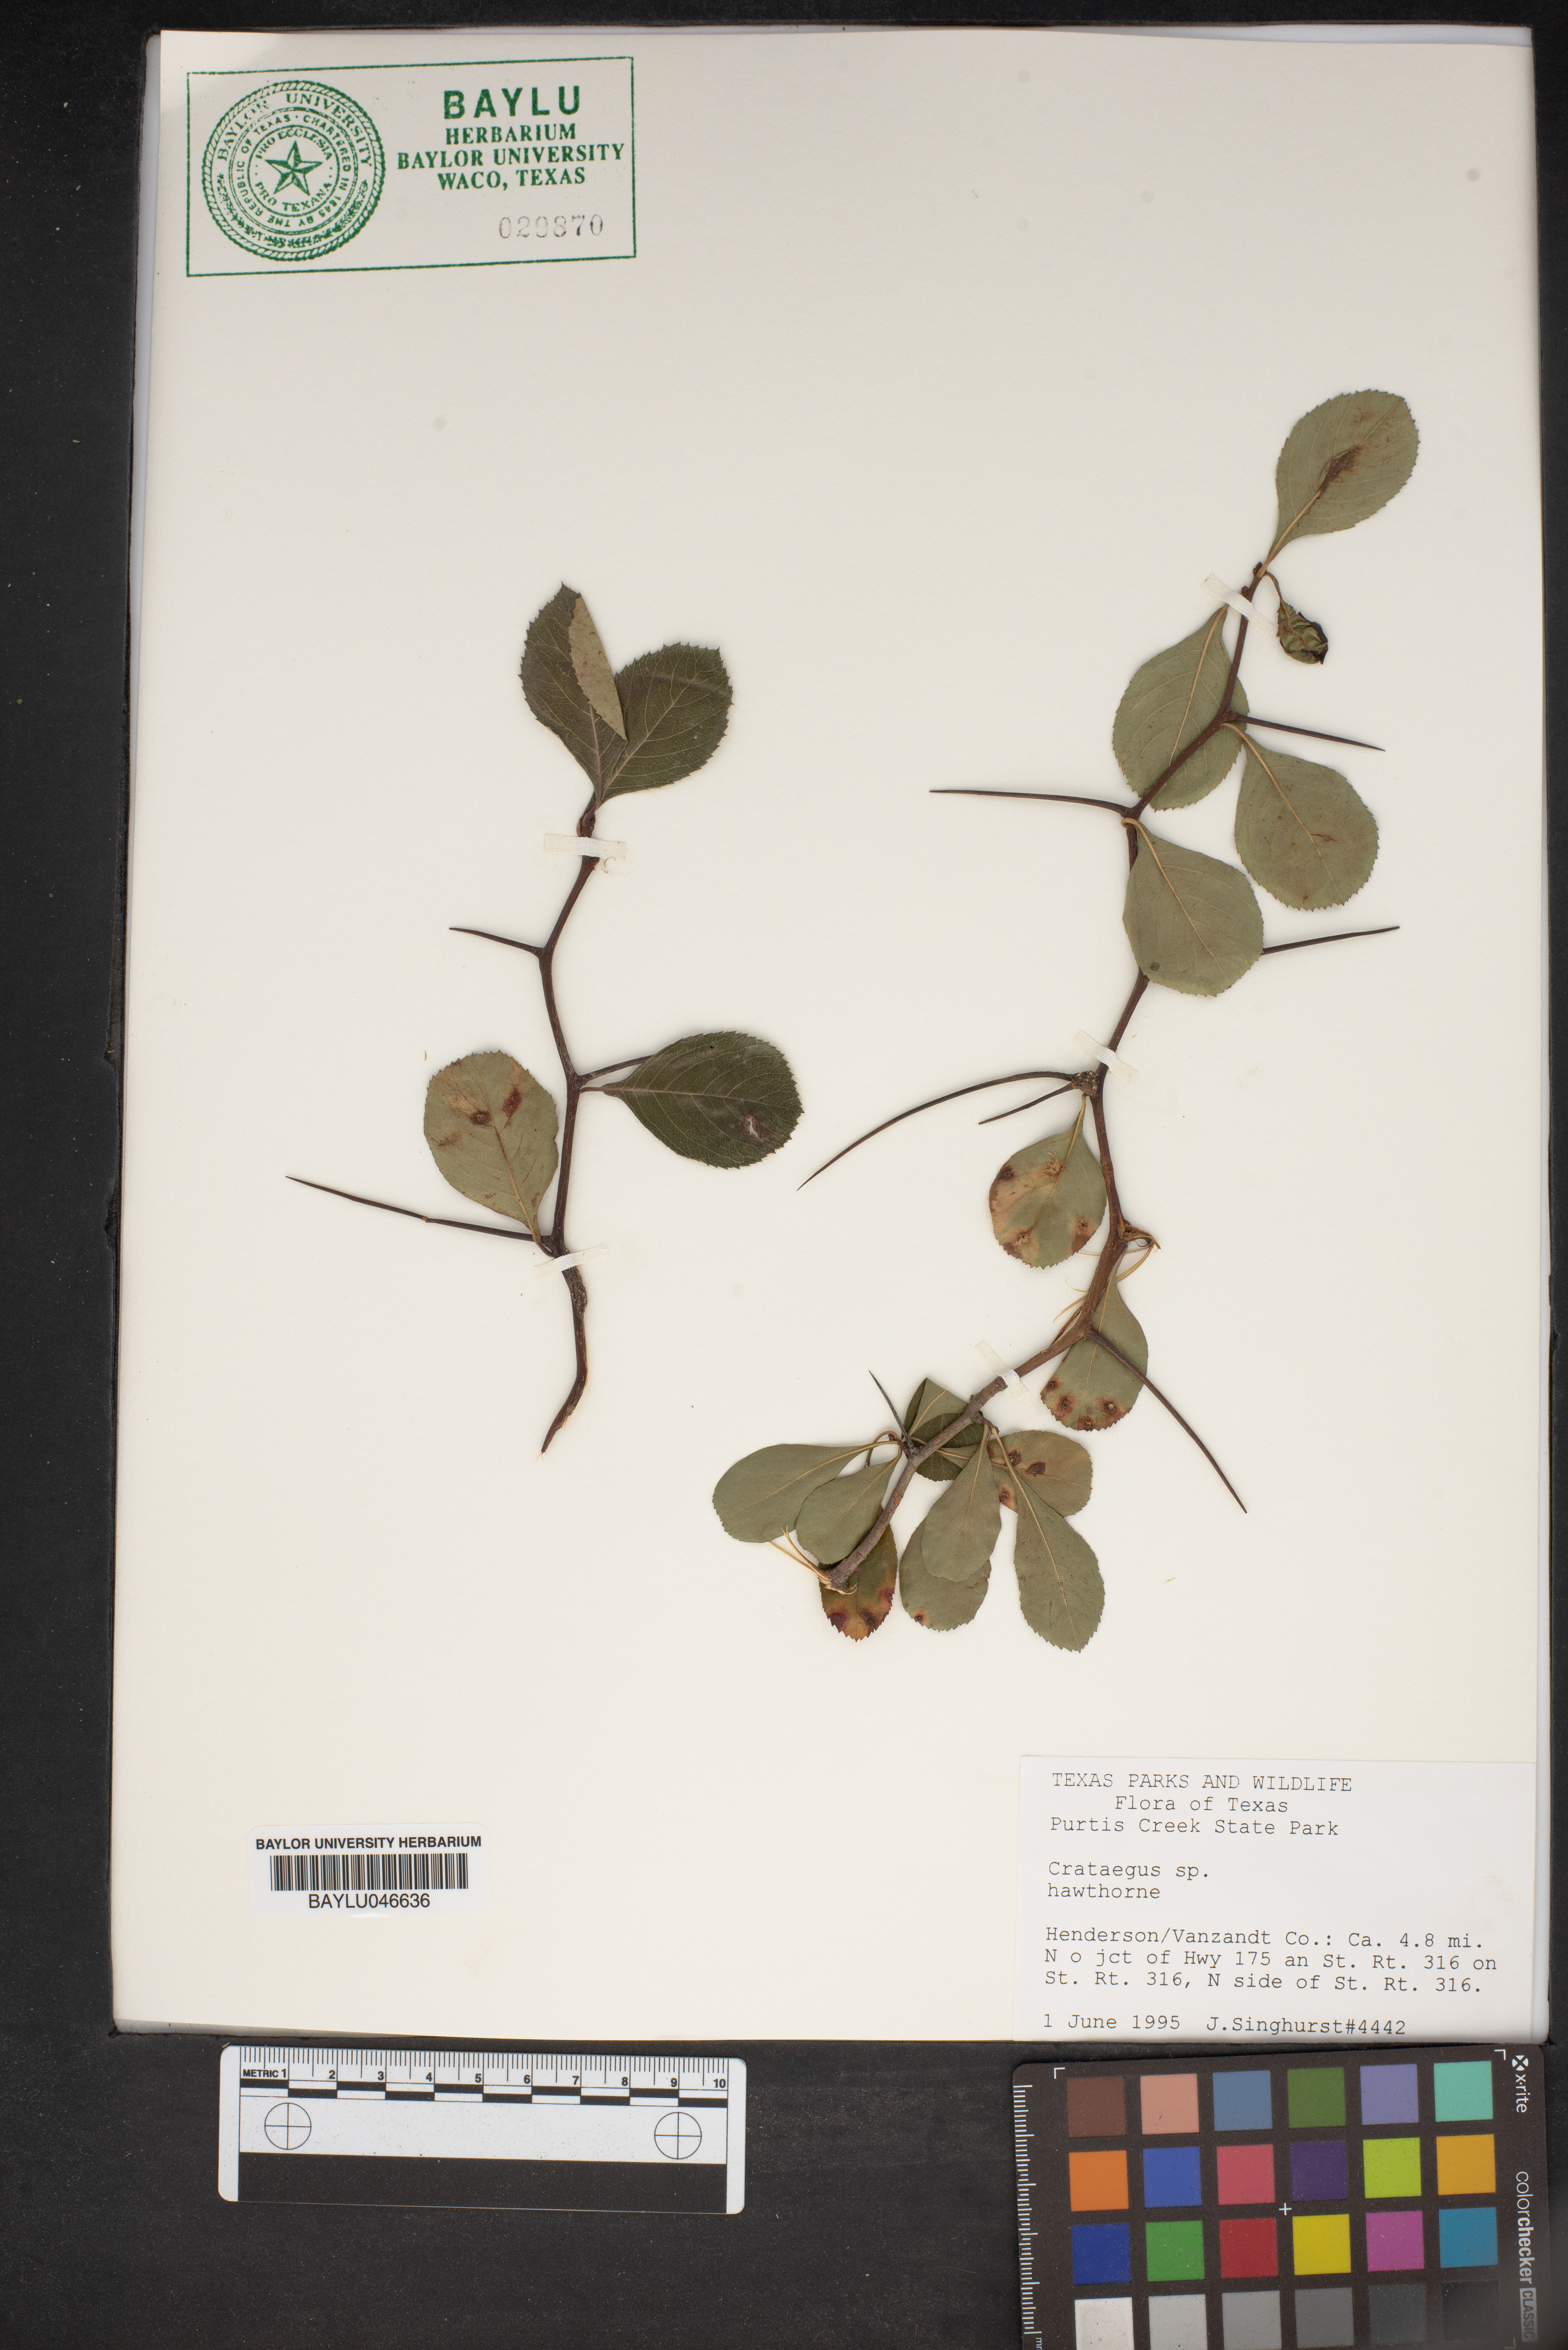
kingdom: Plantae
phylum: Tracheophyta
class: Magnoliopsida
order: Rosales
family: Rosaceae
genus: Crataegus
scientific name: Crataegus
